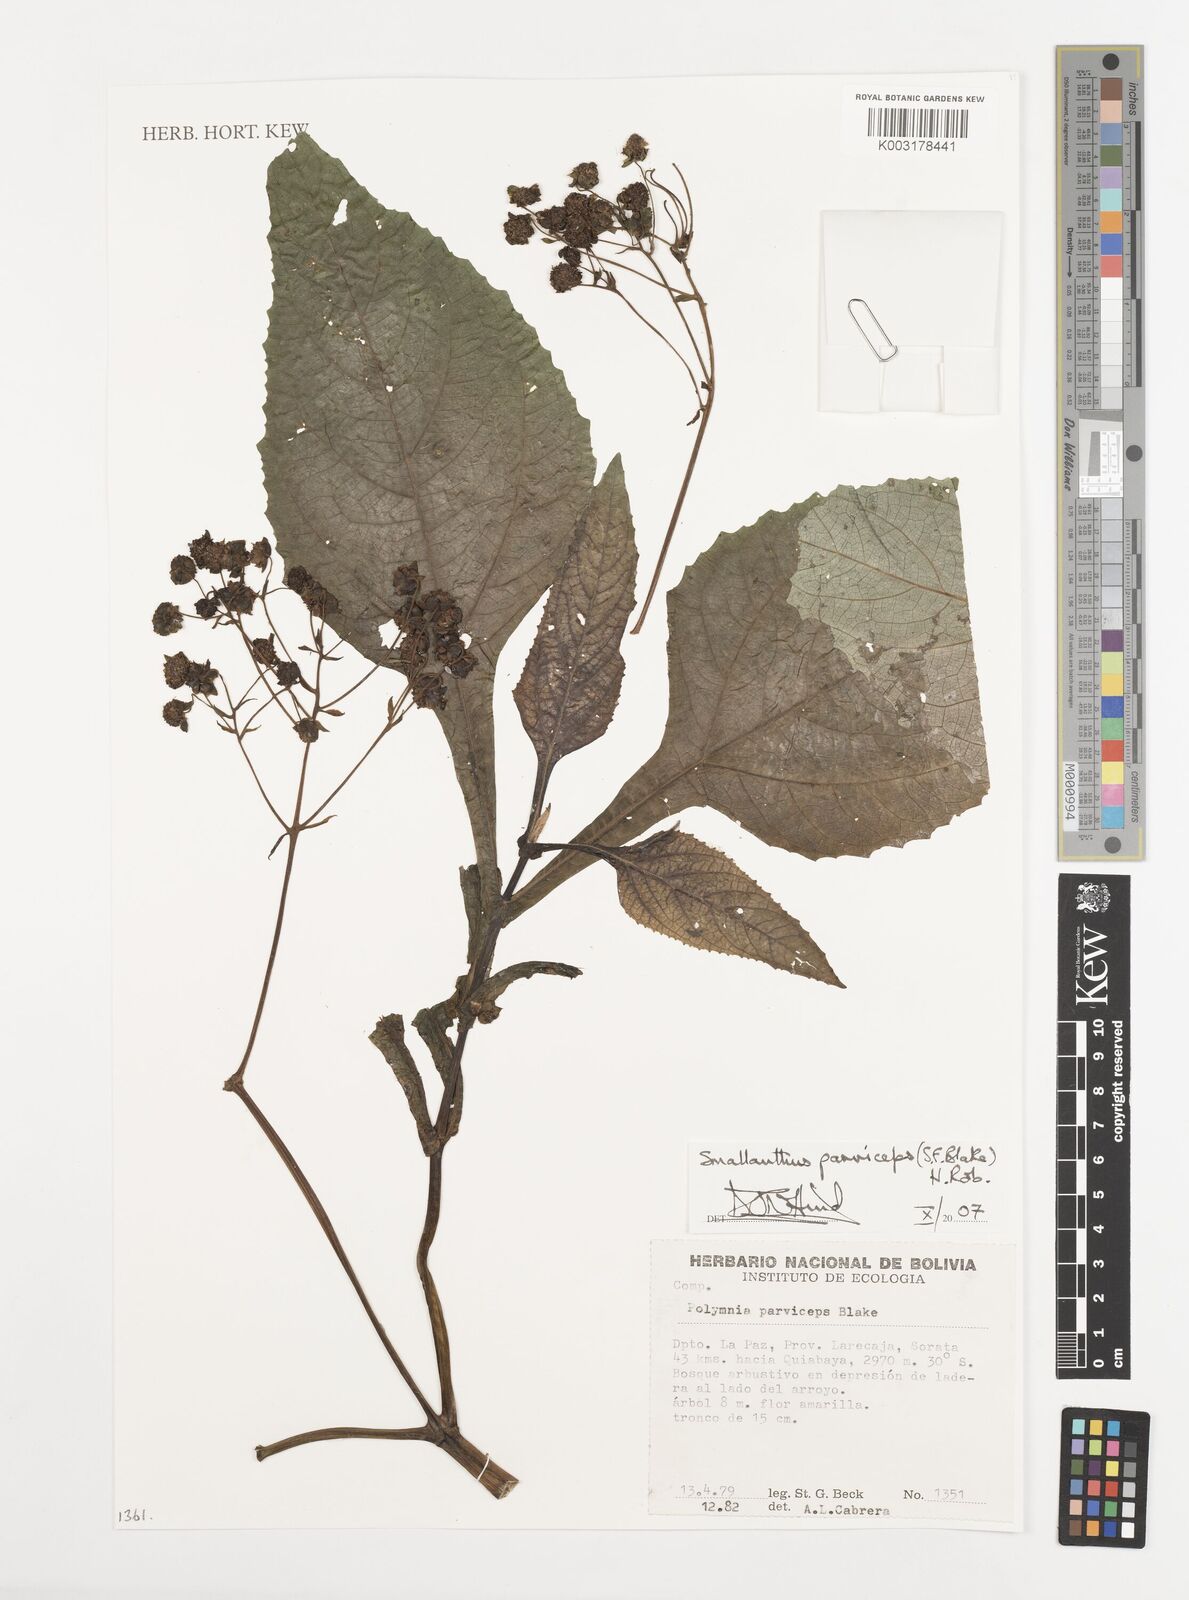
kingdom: Plantae
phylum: Tracheophyta
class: Magnoliopsida
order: Asterales
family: Asteraceae
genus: Smallanthus
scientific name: Smallanthus parviceps
